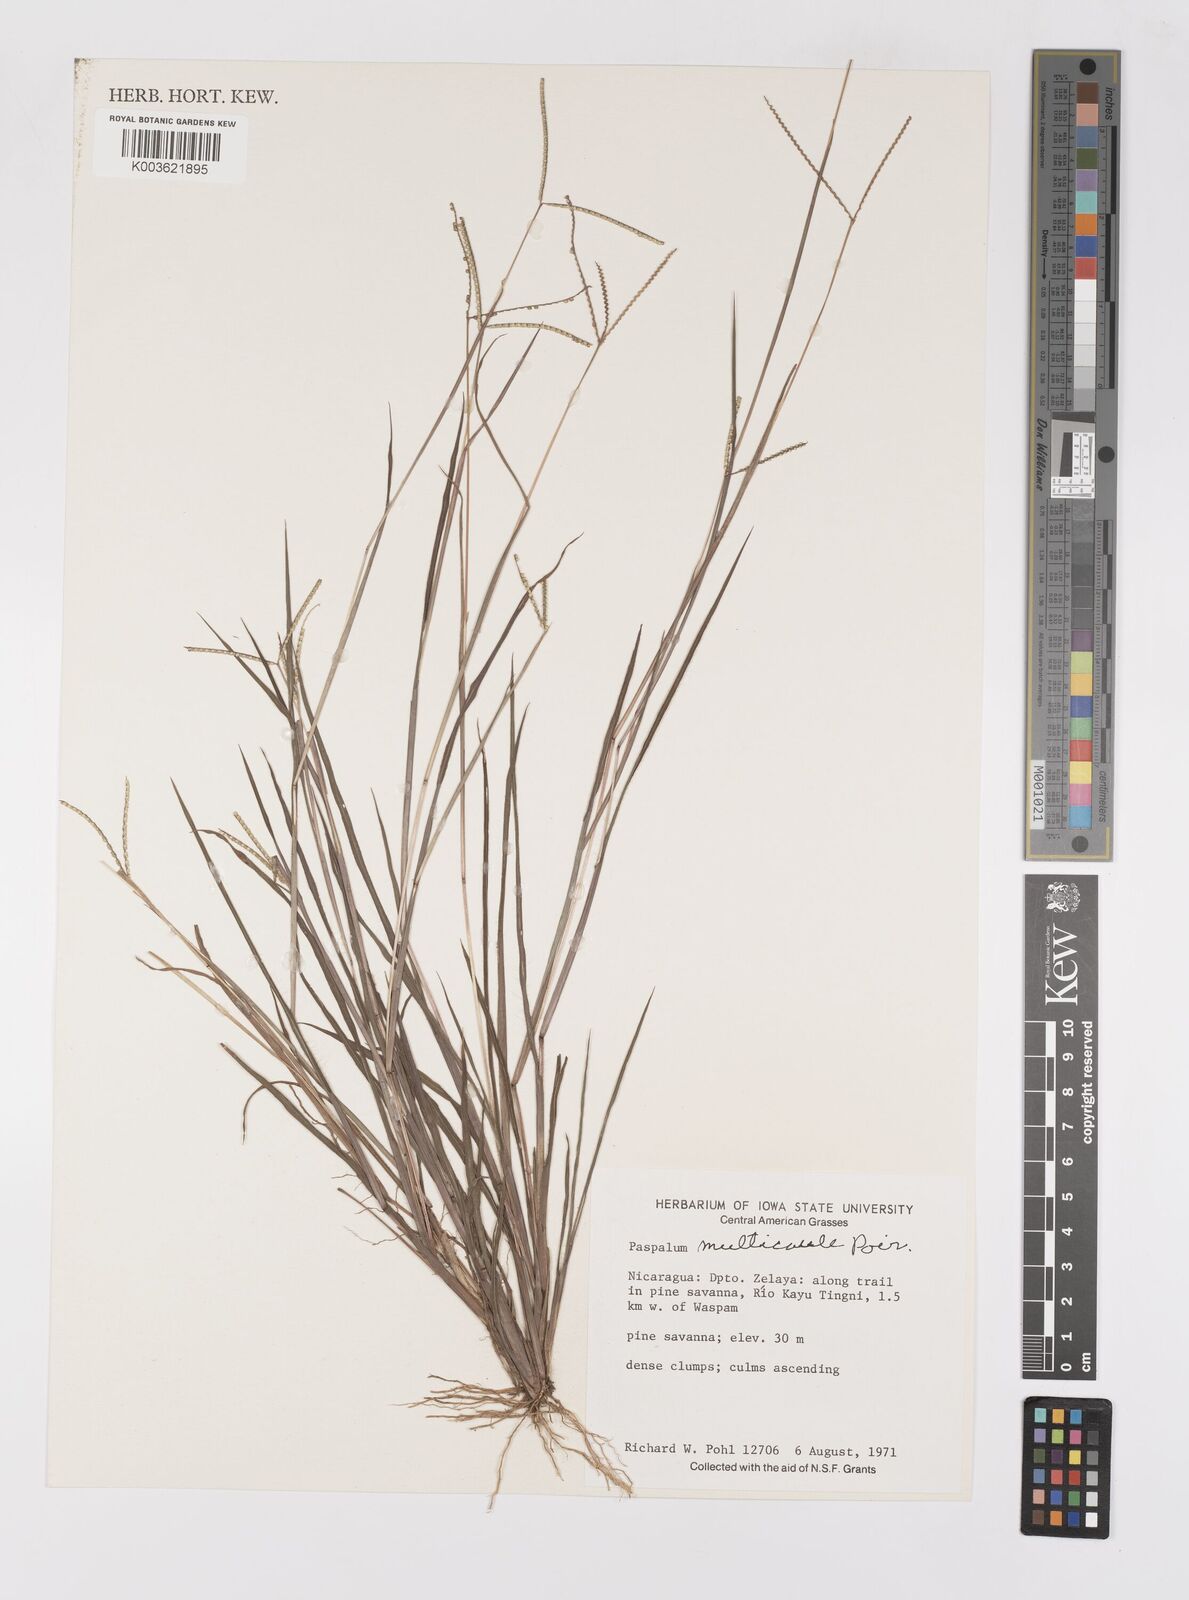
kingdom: Plantae
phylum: Tracheophyta
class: Liliopsida
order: Poales
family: Poaceae
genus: Paspalum
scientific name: Paspalum multicaule
